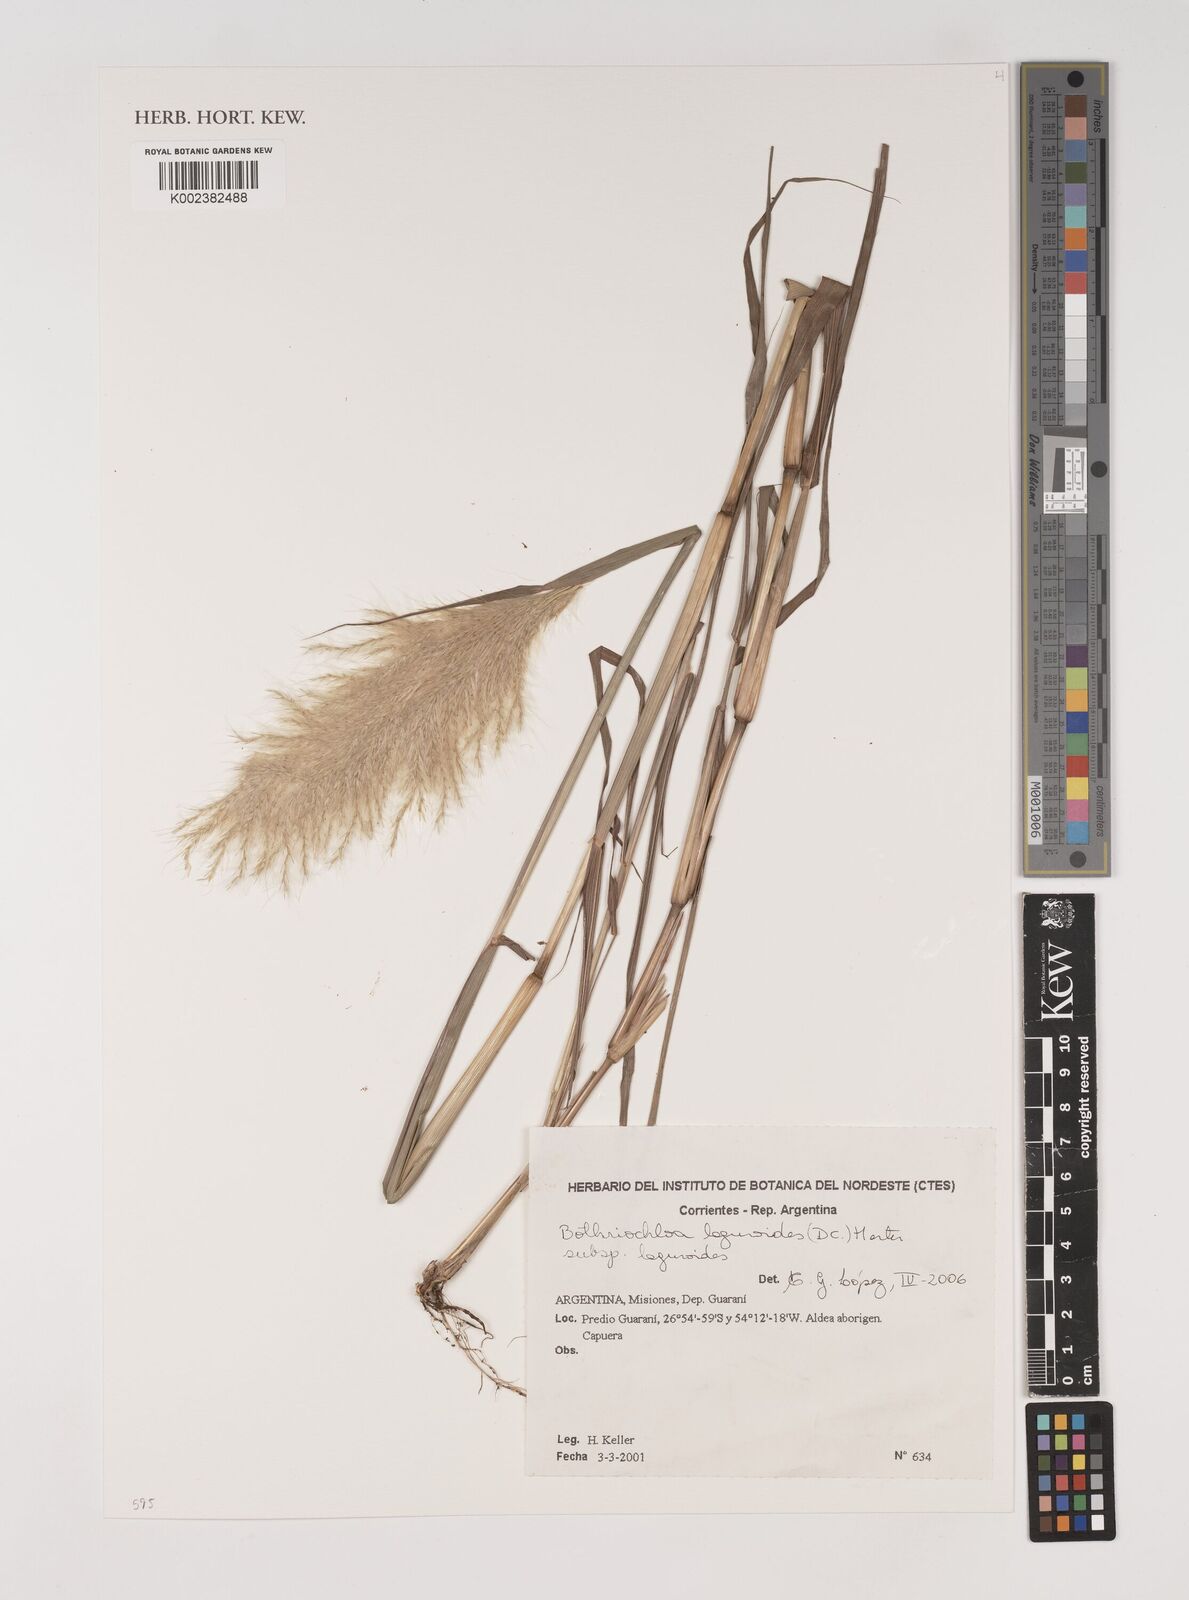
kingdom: Plantae
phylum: Tracheophyta
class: Liliopsida
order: Poales
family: Poaceae
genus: Bothriochloa
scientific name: Bothriochloa laguroides
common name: Silver bluestem
